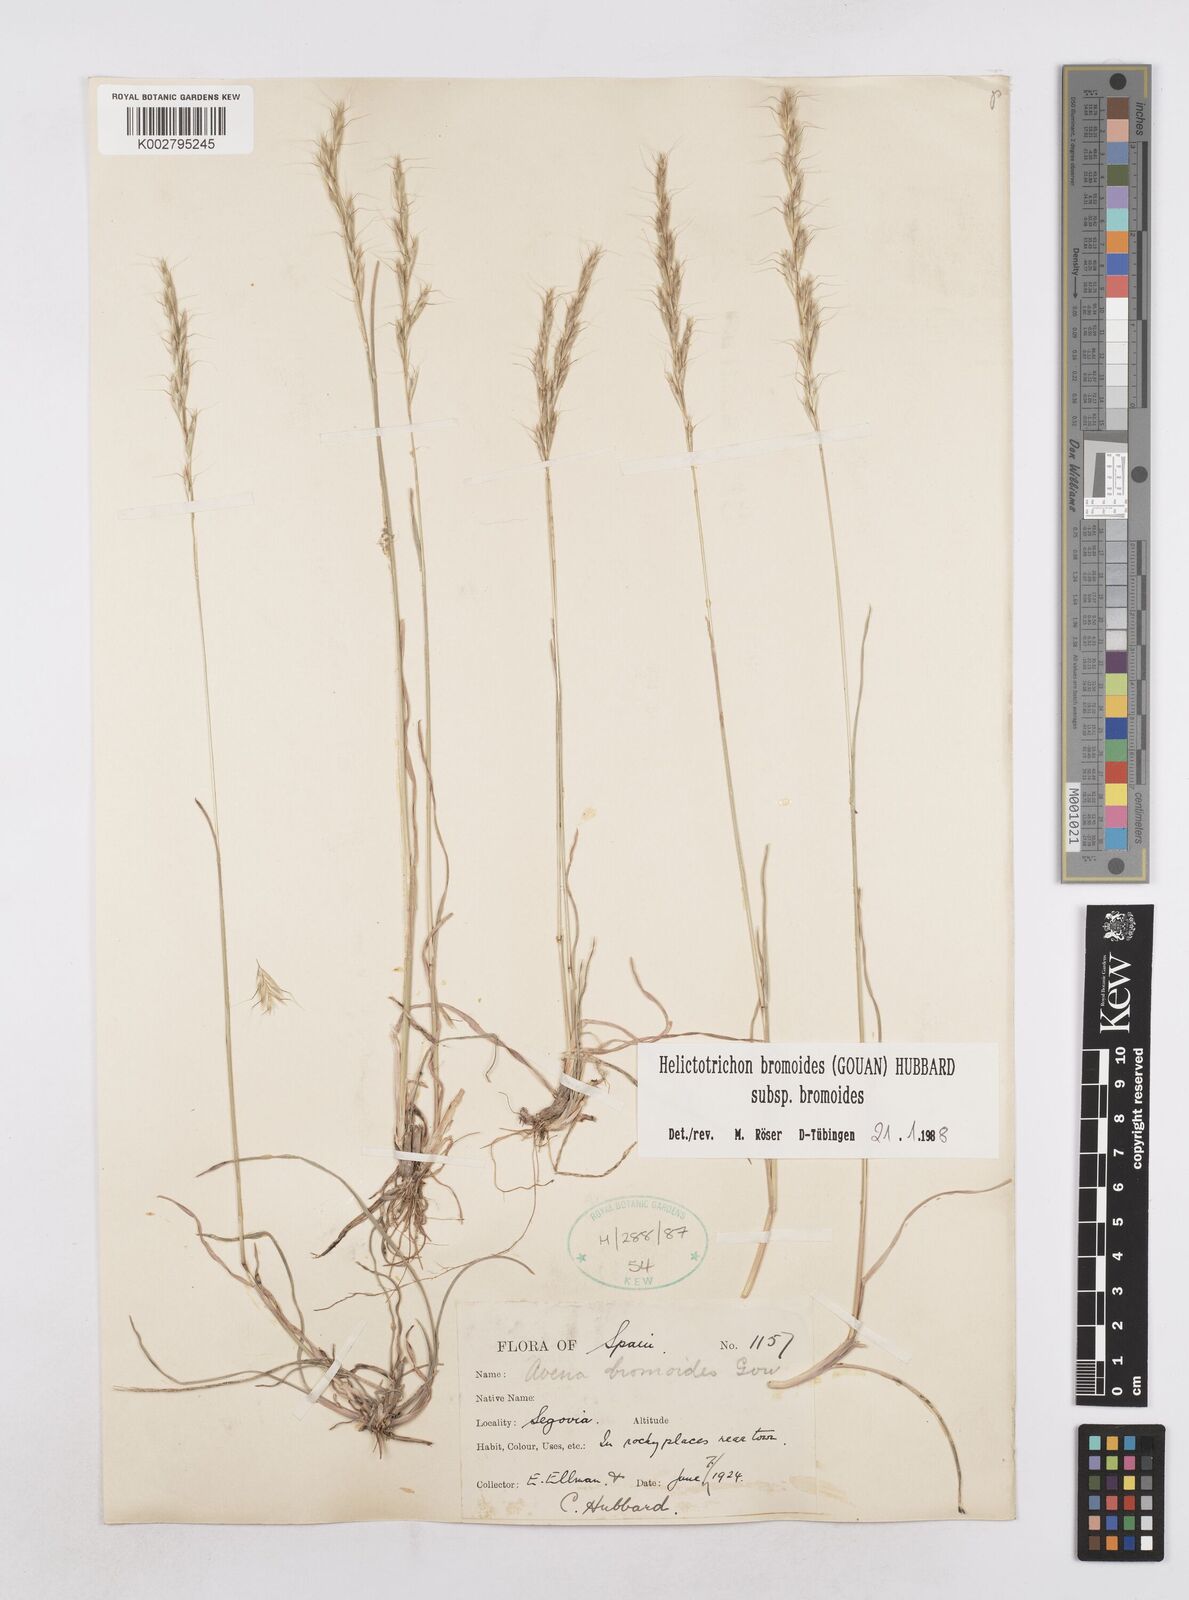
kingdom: Plantae
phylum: Tracheophyta
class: Liliopsida
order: Poales
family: Poaceae
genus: Helictochloa
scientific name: Helictochloa bromoides
